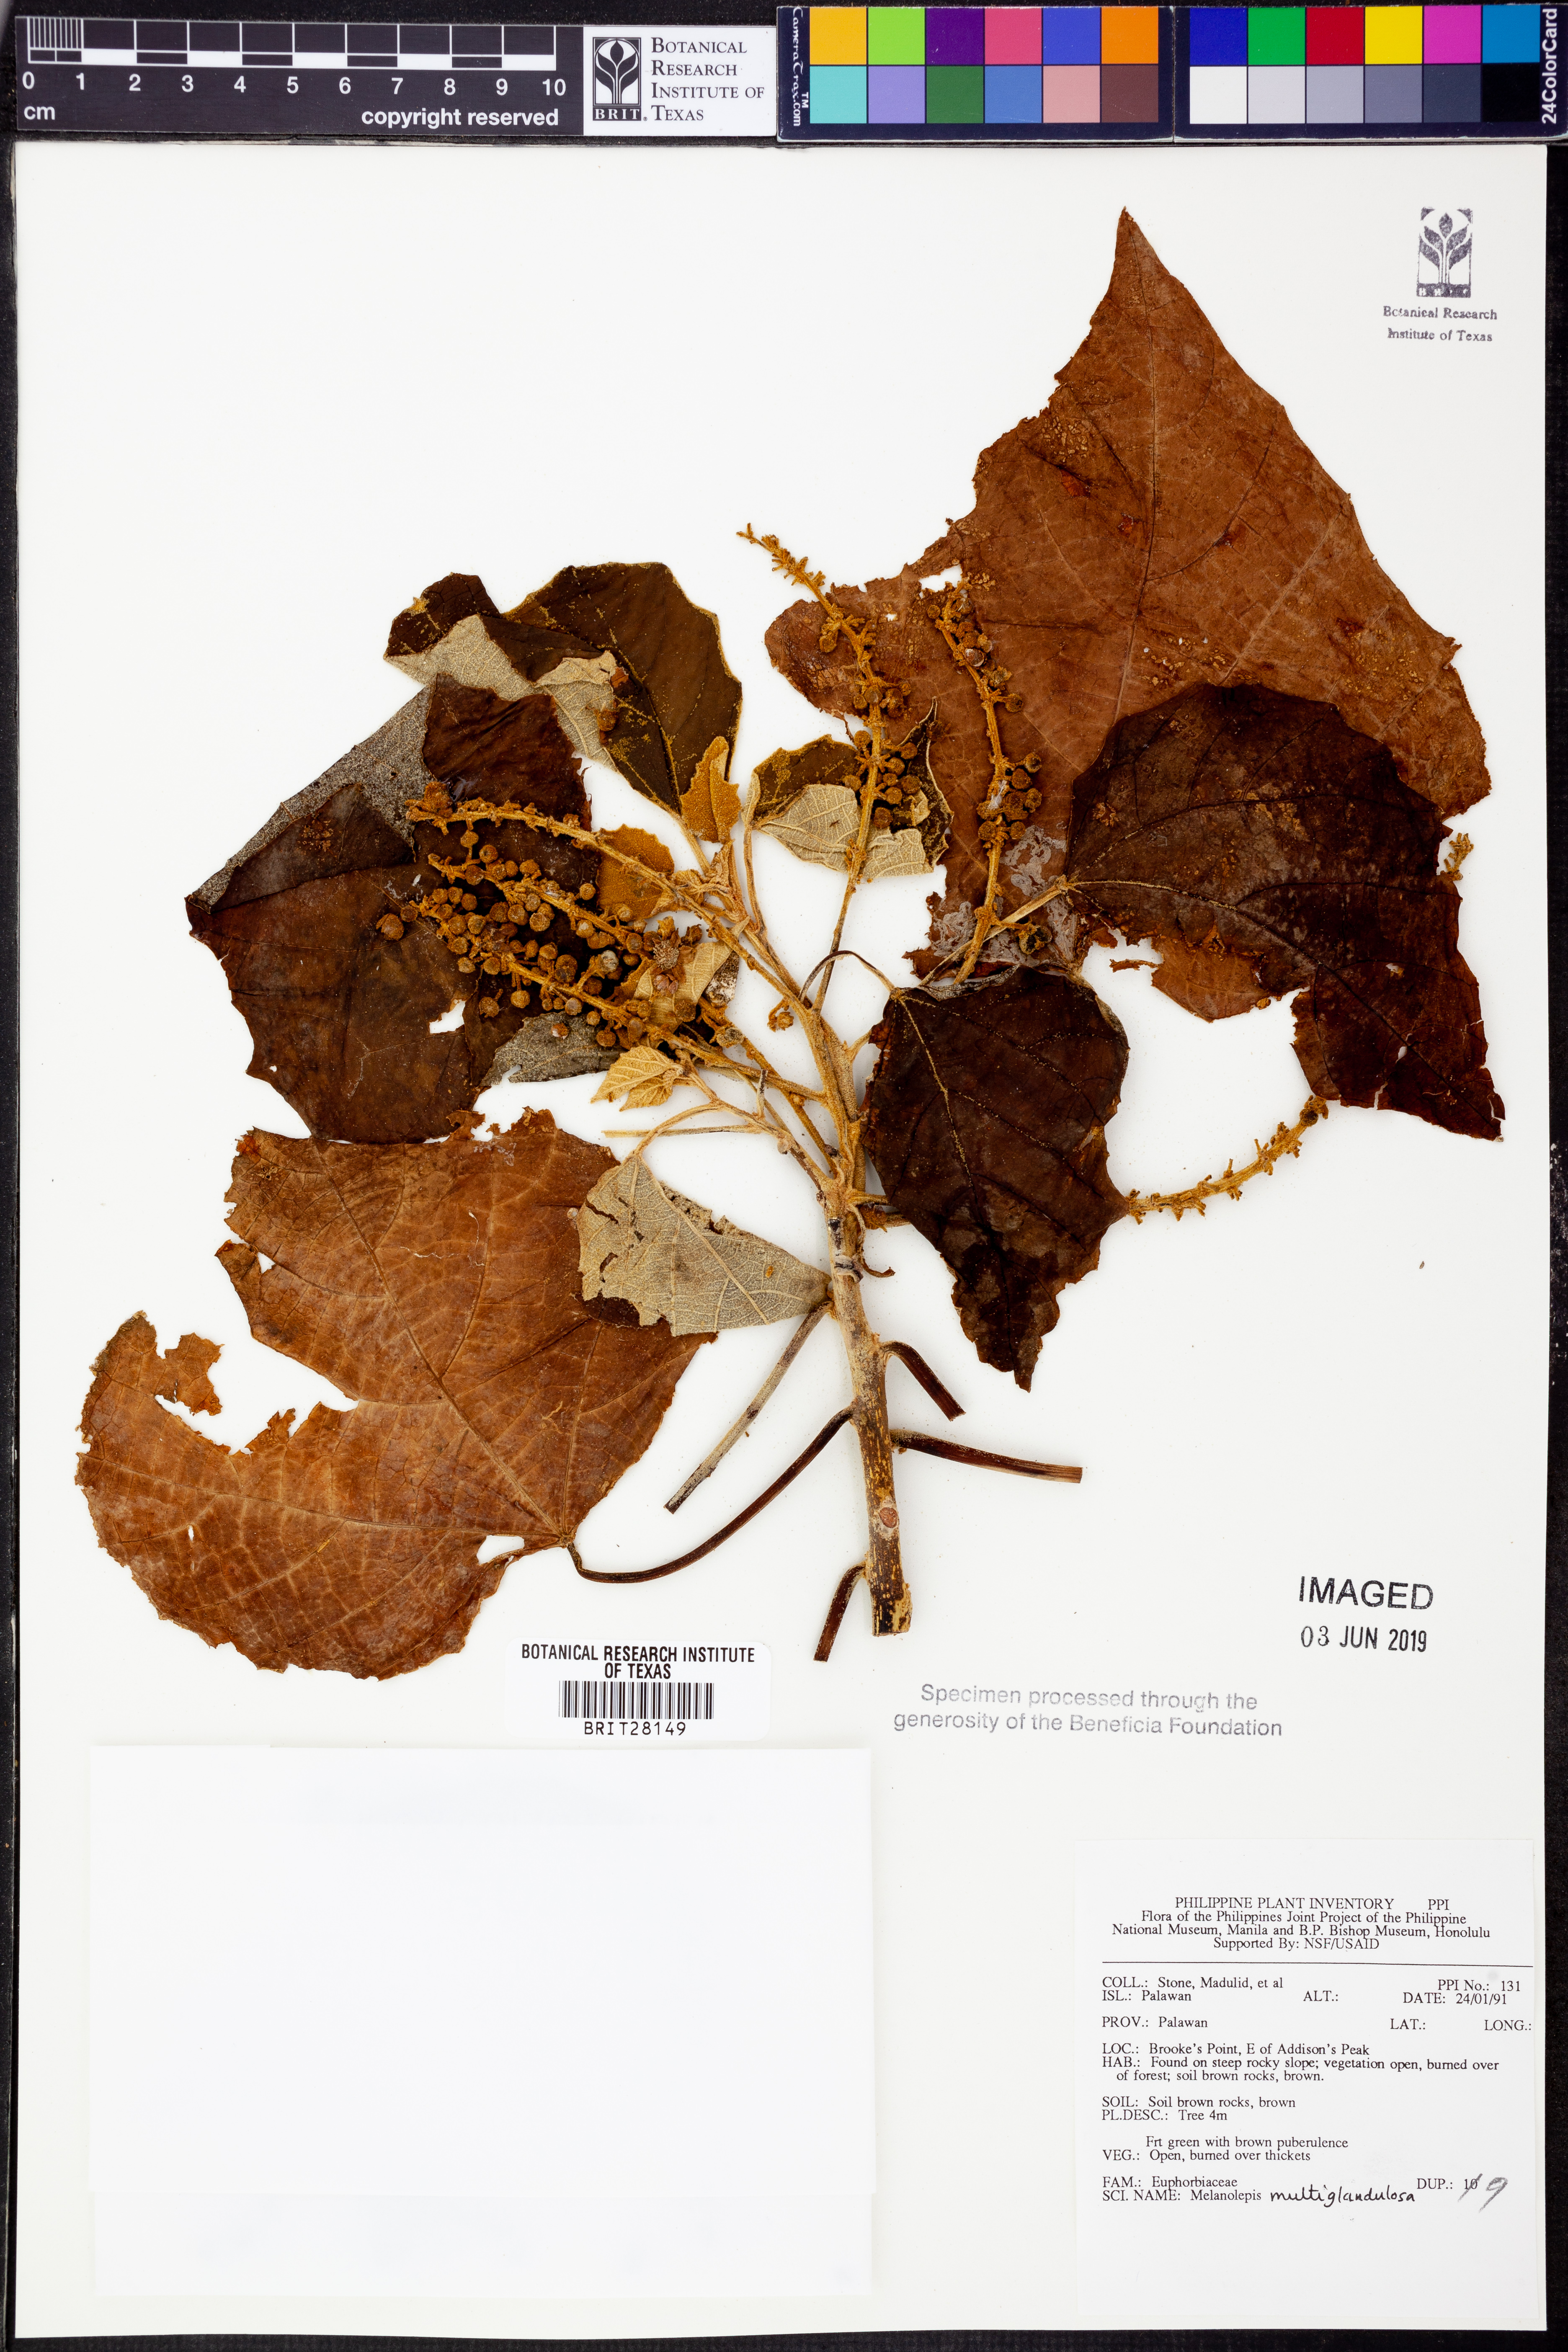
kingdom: Plantae
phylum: Tracheophyta
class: Magnoliopsida
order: Malpighiales
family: Euphorbiaceae
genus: Melanolepis
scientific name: Melanolepis multiglandulosa
